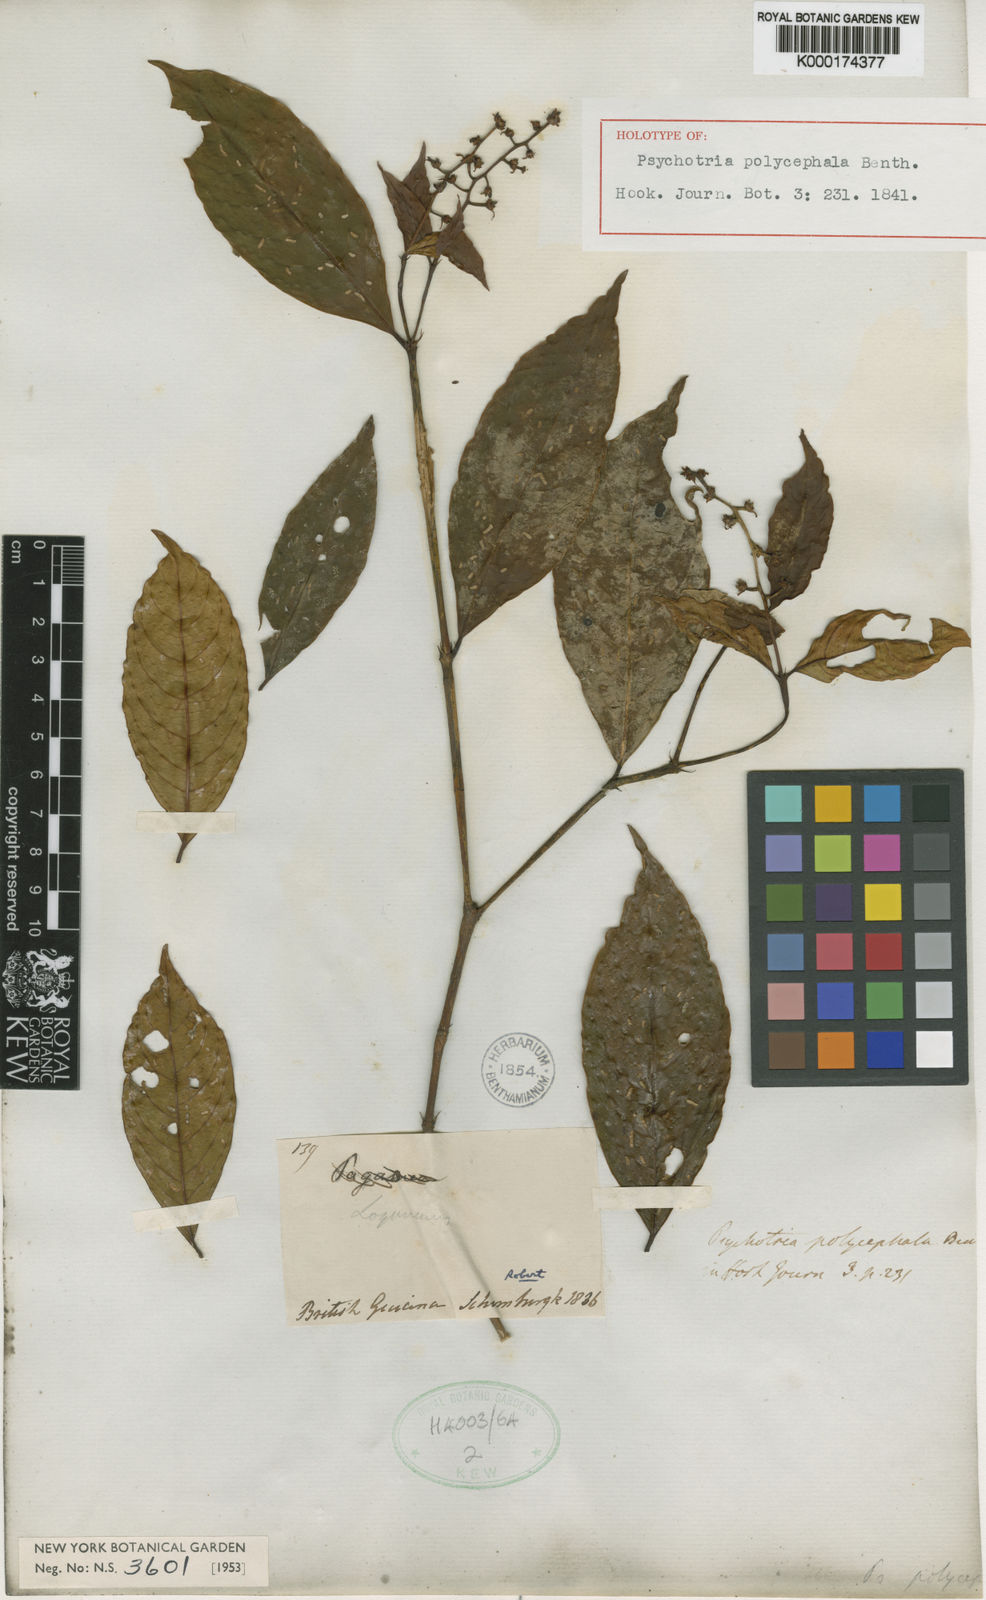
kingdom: Plantae
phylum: Tracheophyta
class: Magnoliopsida
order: Gentianales
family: Rubiaceae
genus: Palicourea
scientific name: Palicourea polycephala
